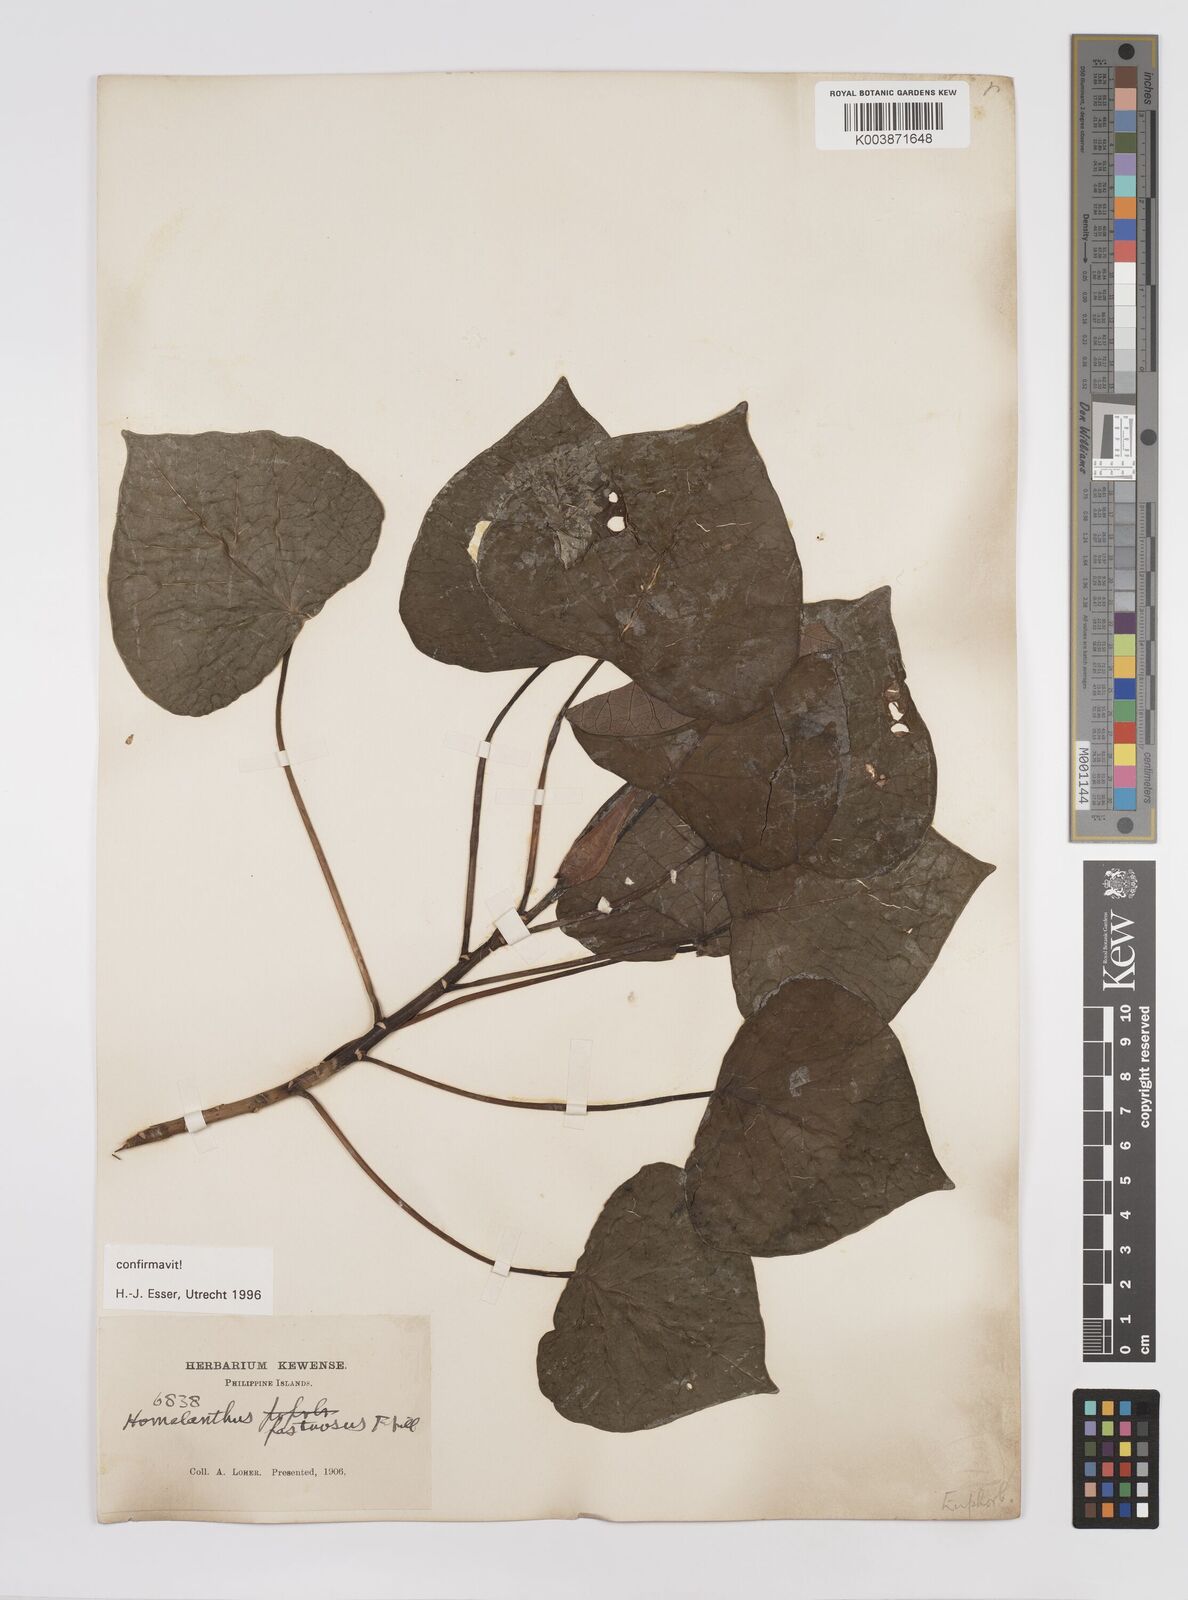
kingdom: Plantae
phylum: Tracheophyta
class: Magnoliopsida
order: Malpighiales
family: Euphorbiaceae
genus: Homalanthus
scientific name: Homalanthus fastuosus
